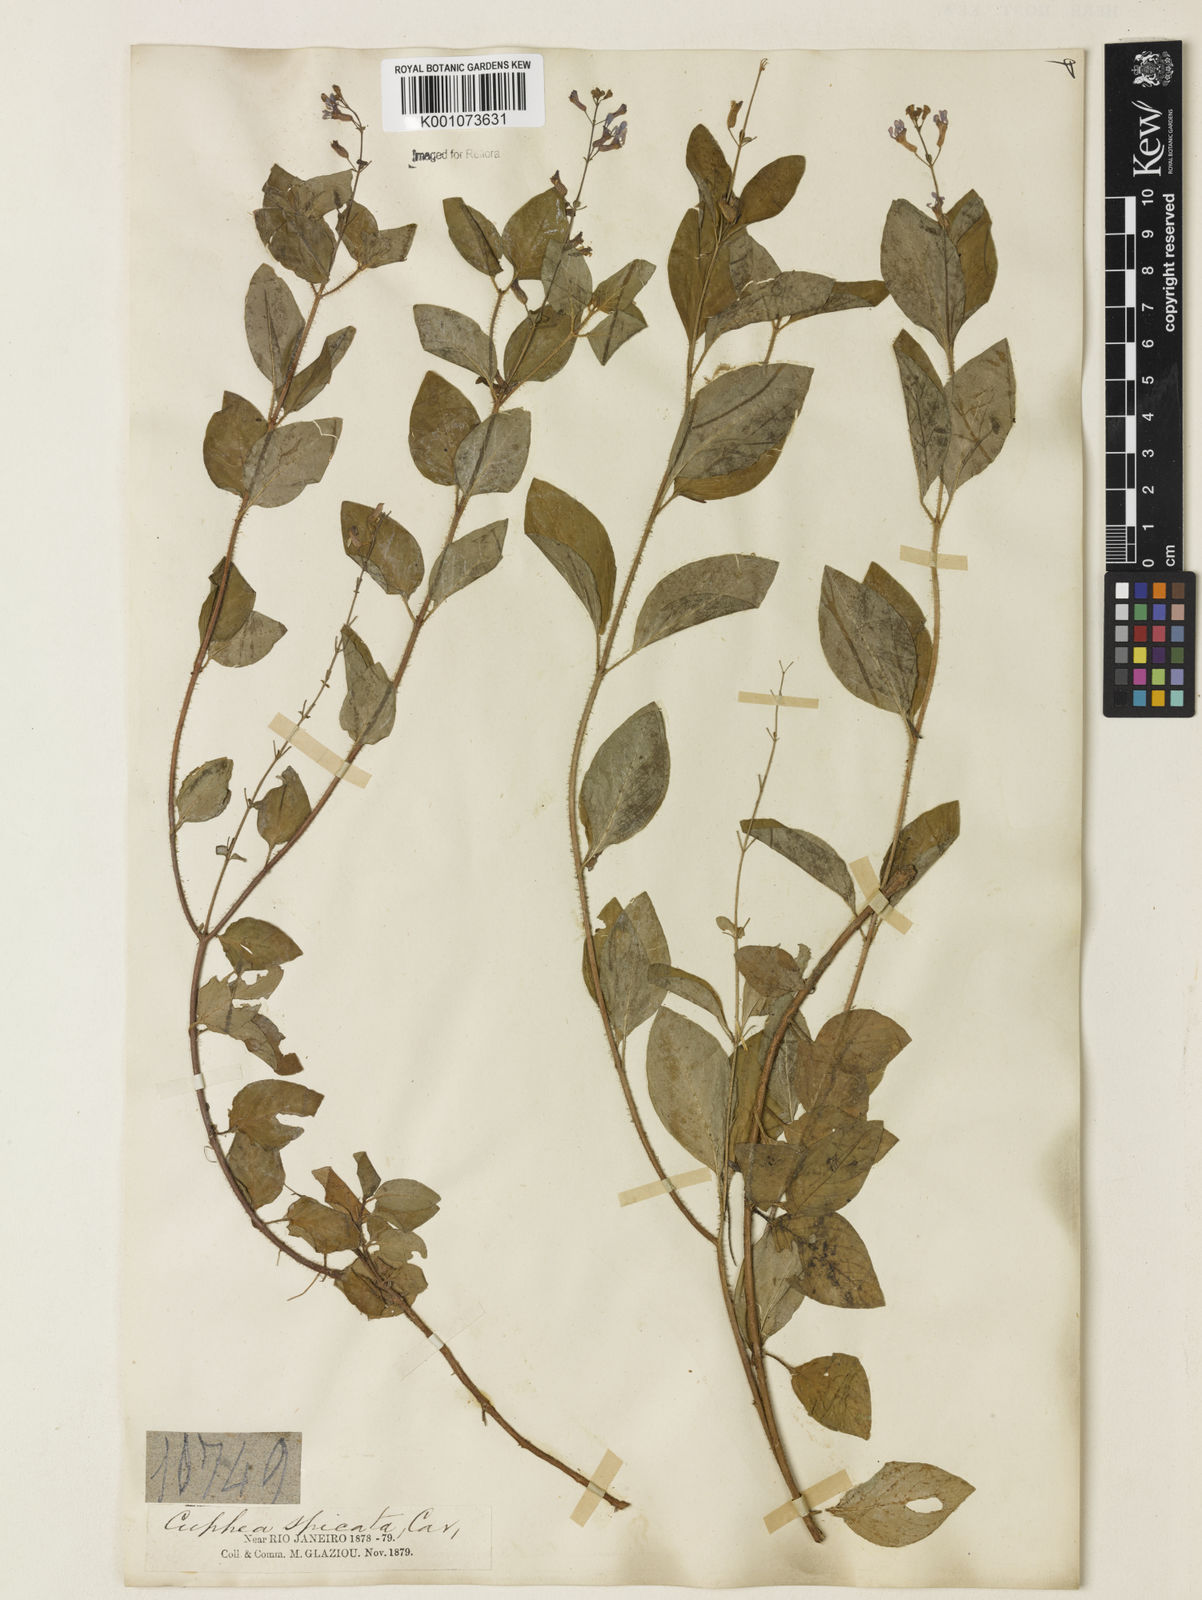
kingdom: Plantae
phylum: Tracheophyta
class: Magnoliopsida
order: Myrtales
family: Lythraceae
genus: Cuphea
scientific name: Cuphea racemosa
